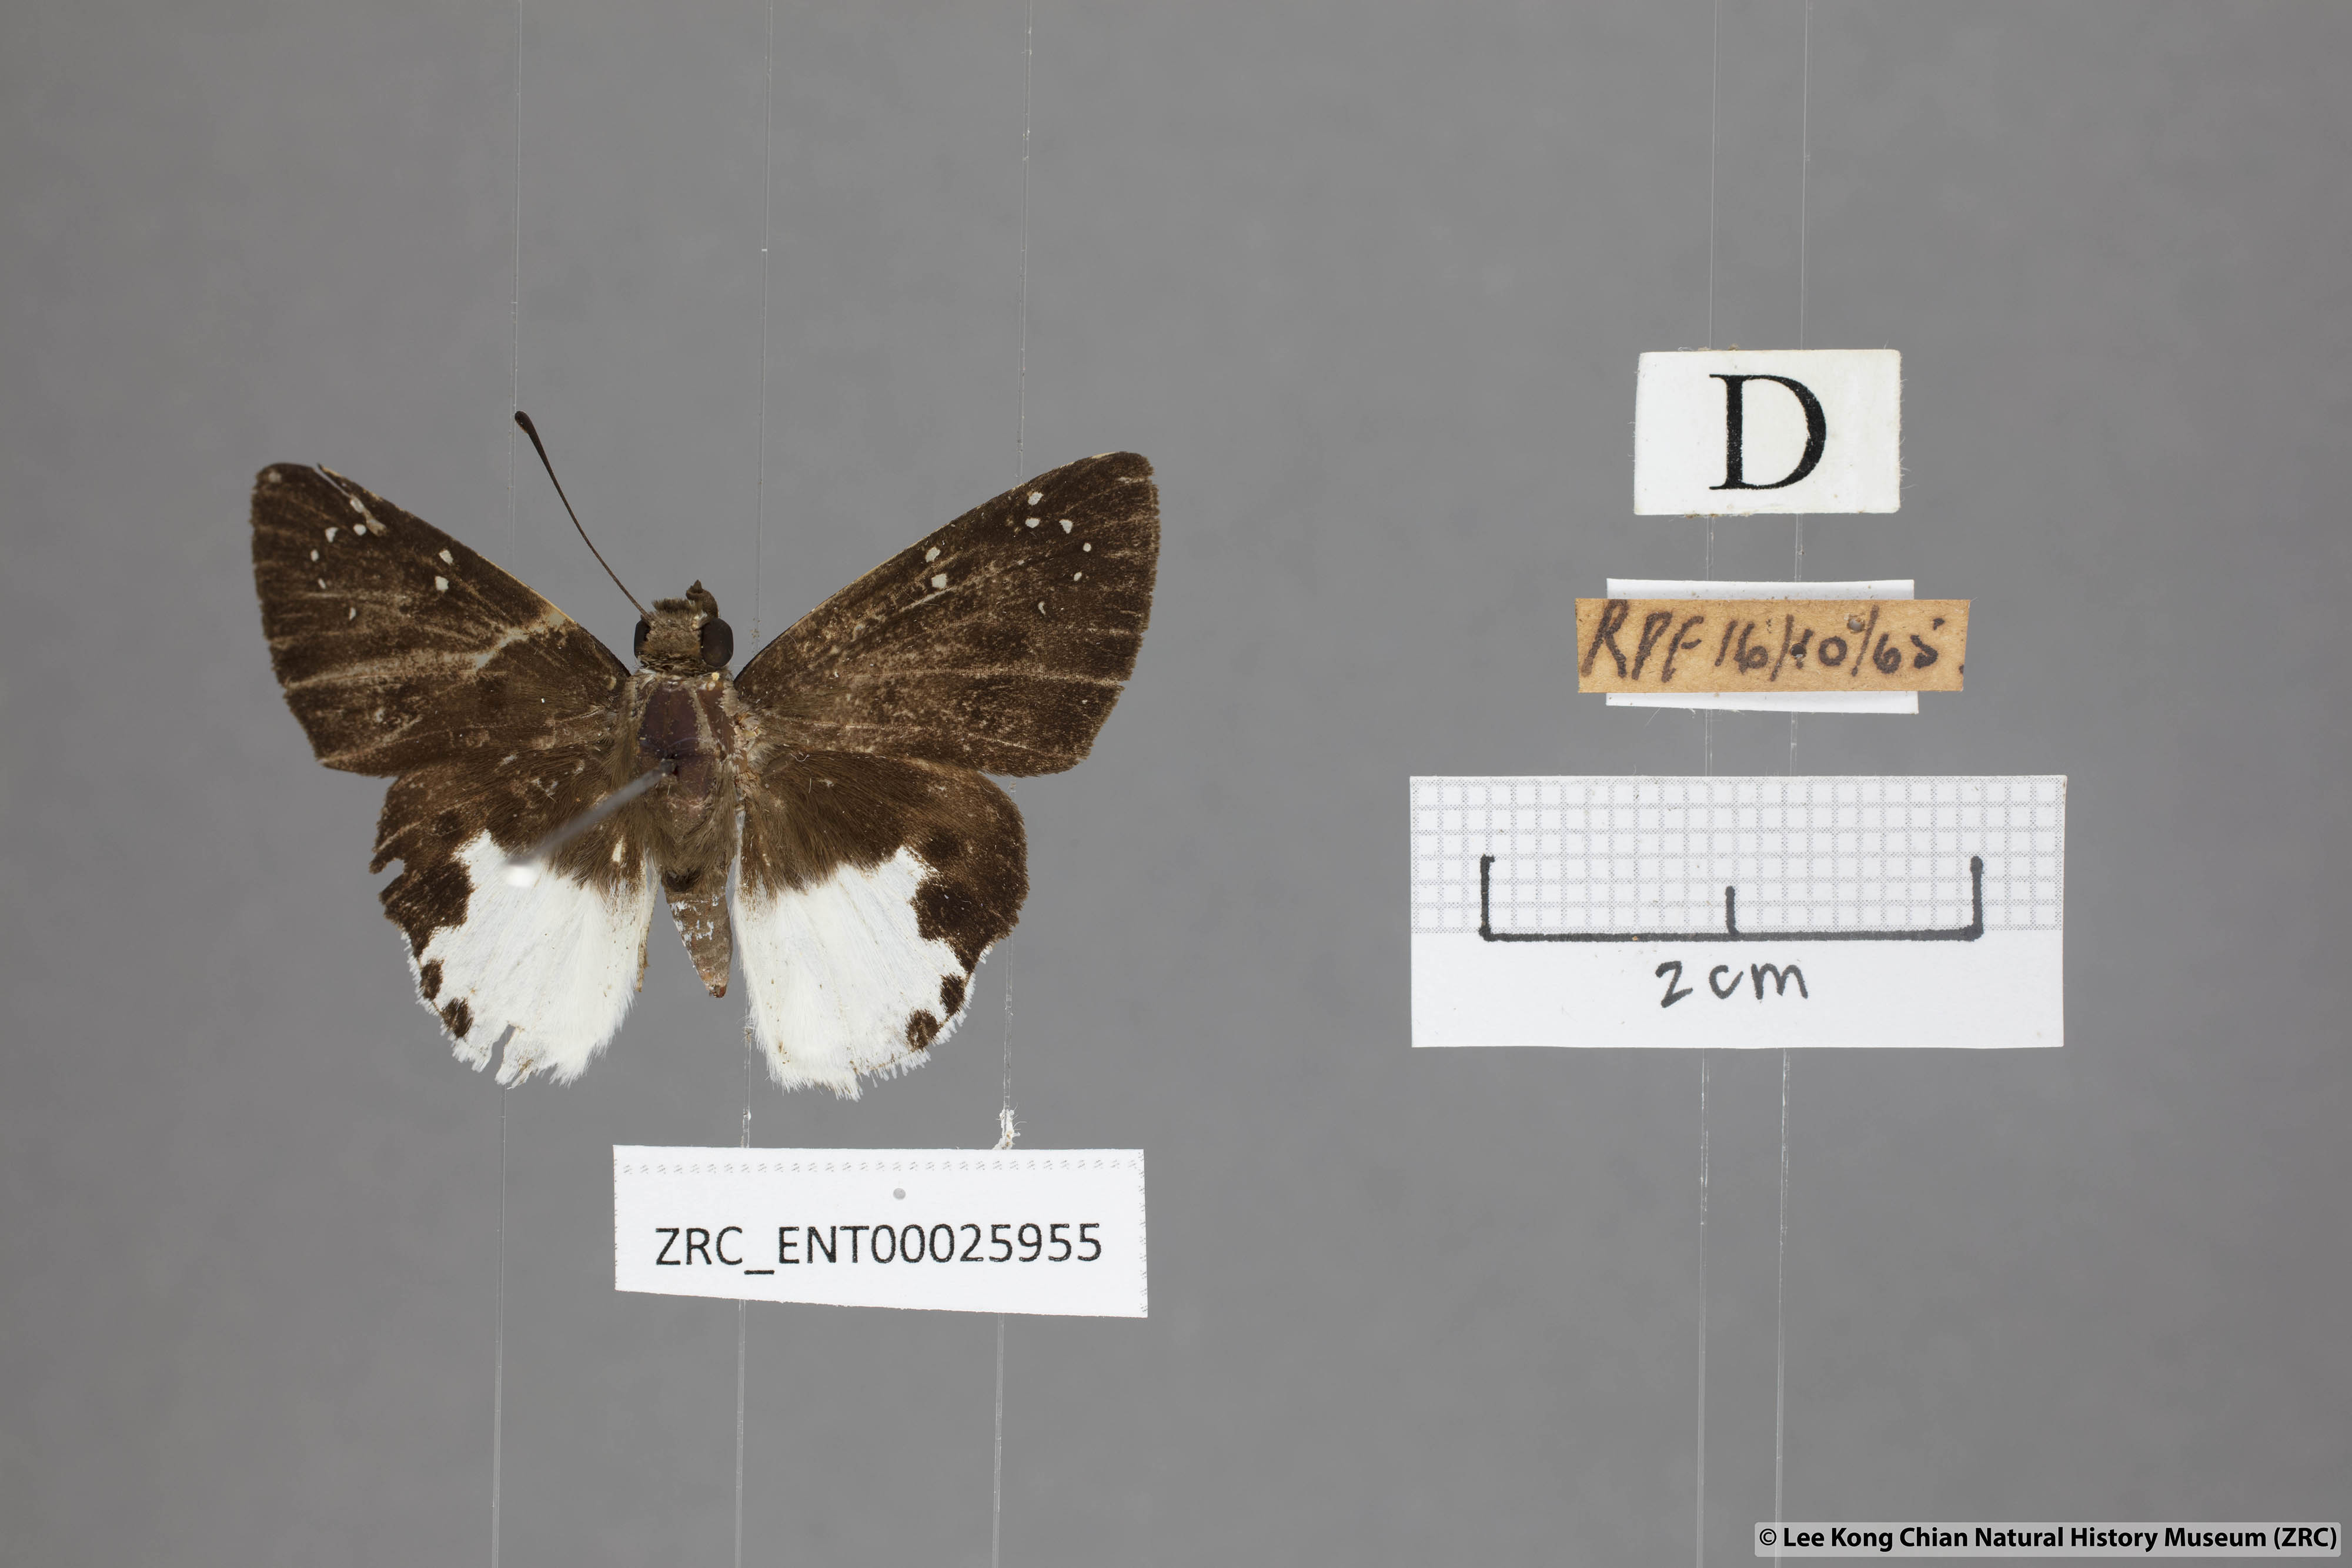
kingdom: Animalia
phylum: Arthropoda
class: Insecta
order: Lepidoptera
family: Hesperiidae
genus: Tagiades
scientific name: Tagiades calligana
